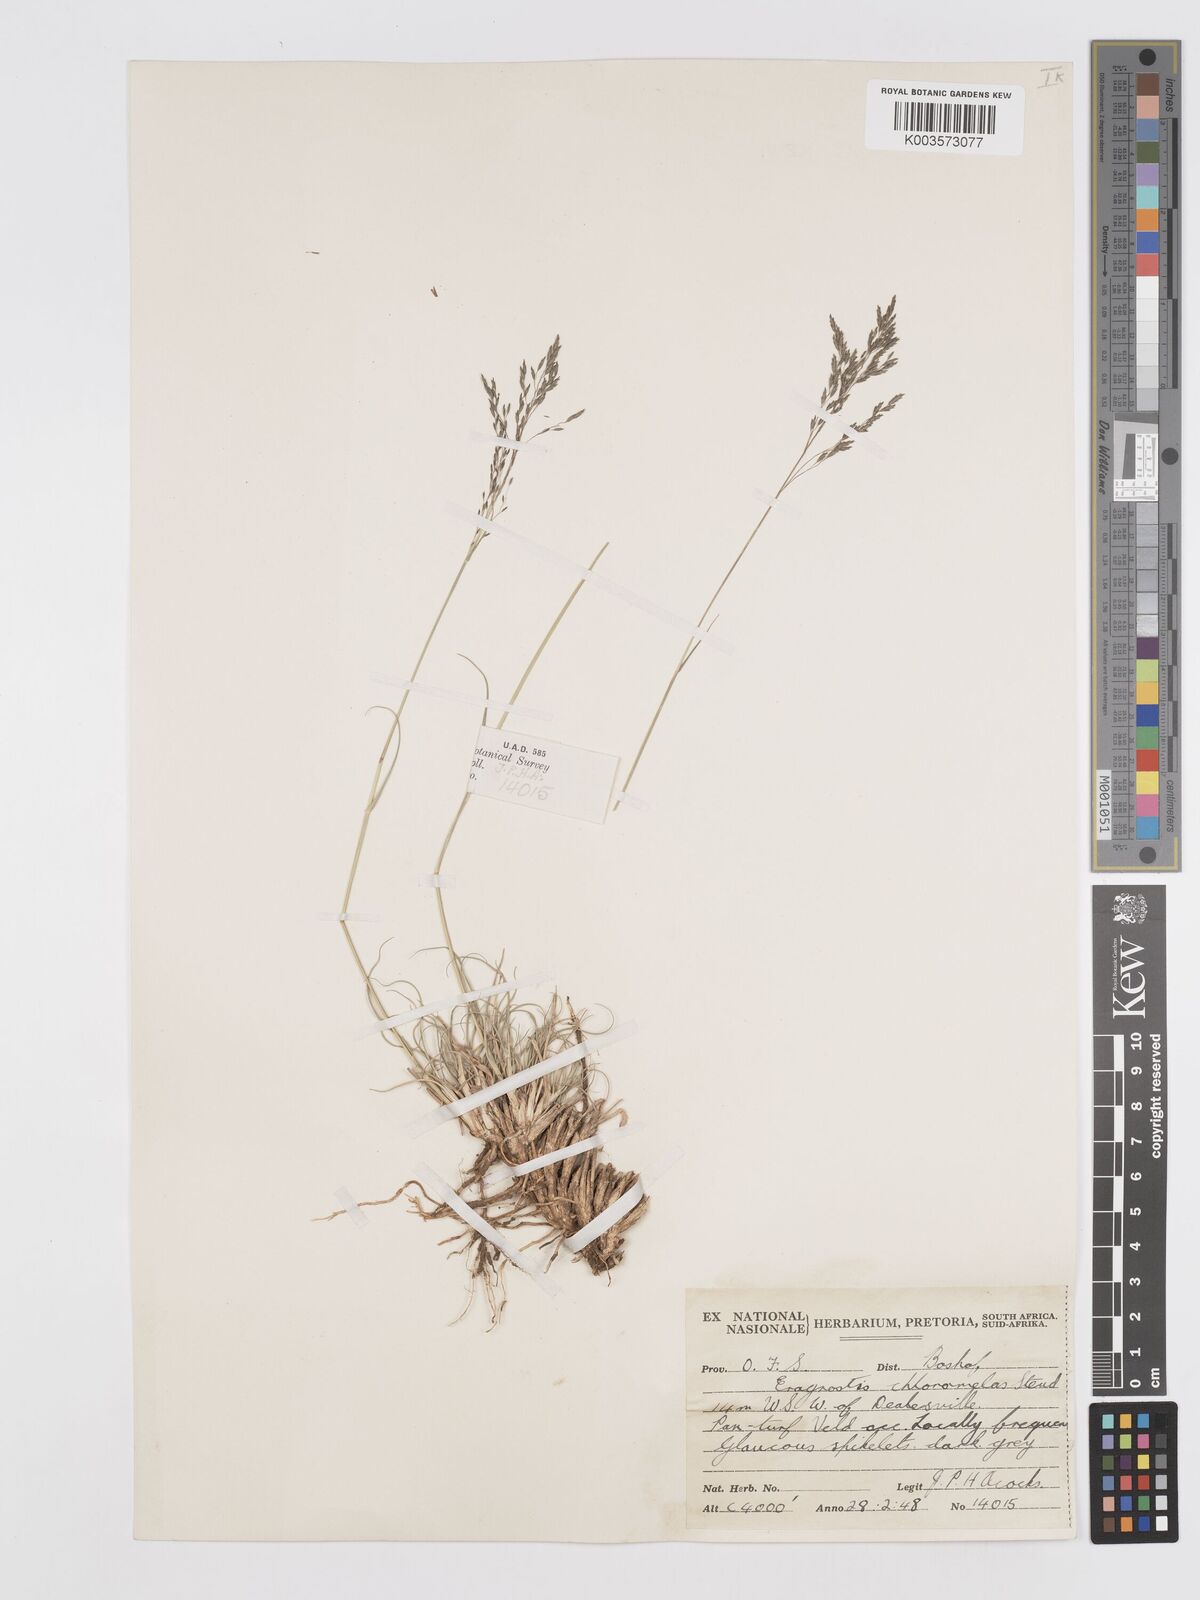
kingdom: Plantae
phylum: Tracheophyta
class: Liliopsida
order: Poales
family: Poaceae
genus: Eragrostis
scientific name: Eragrostis curvula
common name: African love-grass
